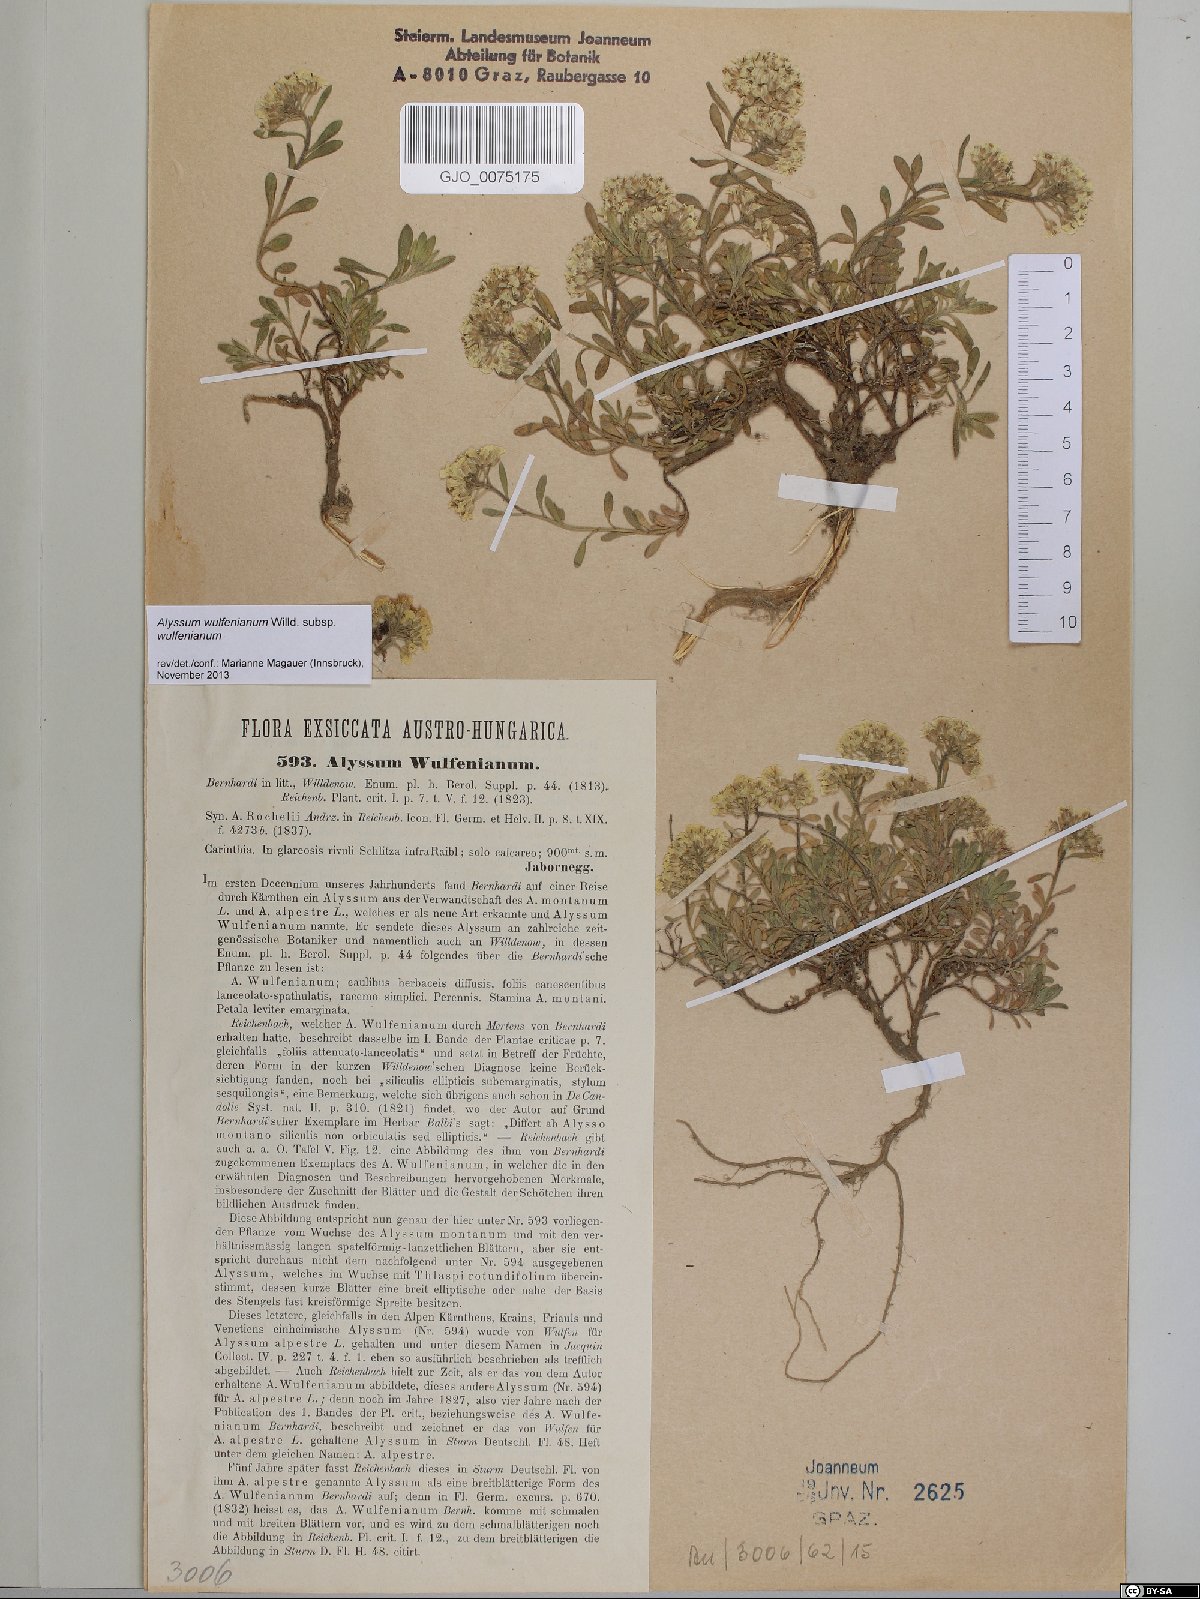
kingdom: Plantae
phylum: Tracheophyta
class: Magnoliopsida
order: Brassicales
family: Brassicaceae
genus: Alyssum
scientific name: Alyssum wulfenianum
